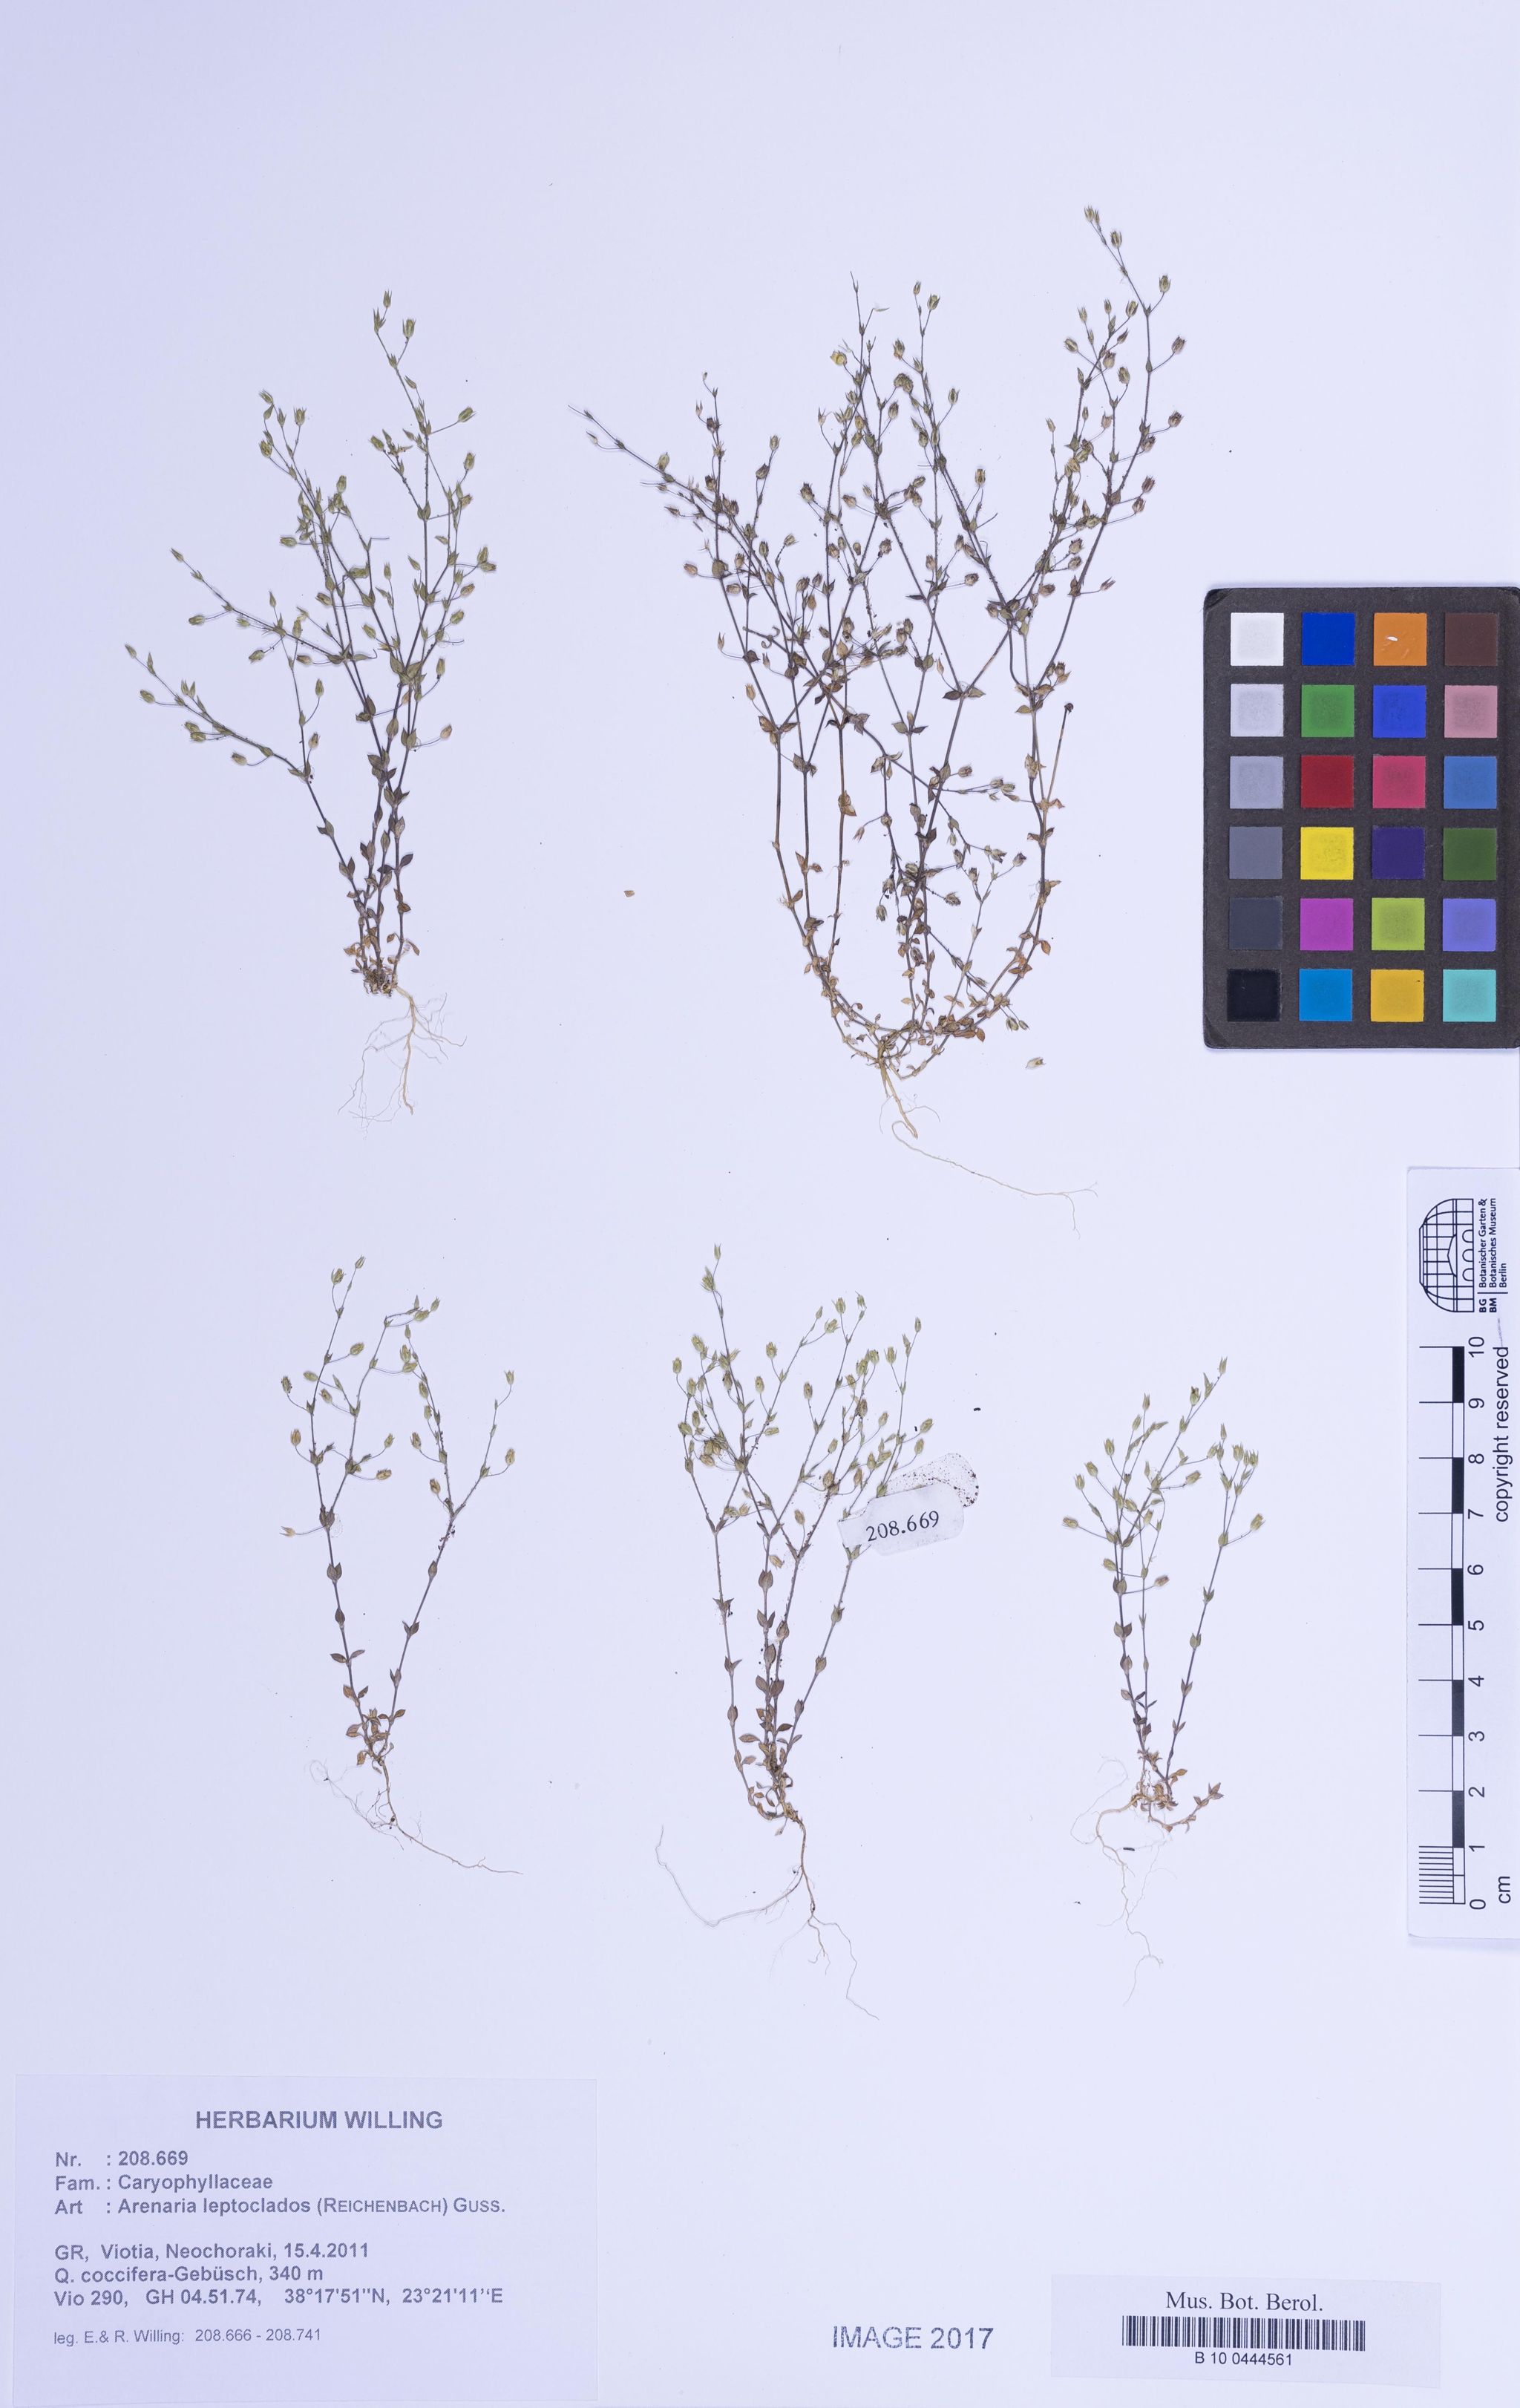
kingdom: Plantae
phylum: Tracheophyta
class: Magnoliopsida
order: Caryophyllales
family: Caryophyllaceae
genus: Arenaria
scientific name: Arenaria leptoclados
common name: Thyme-leaved sandwort
